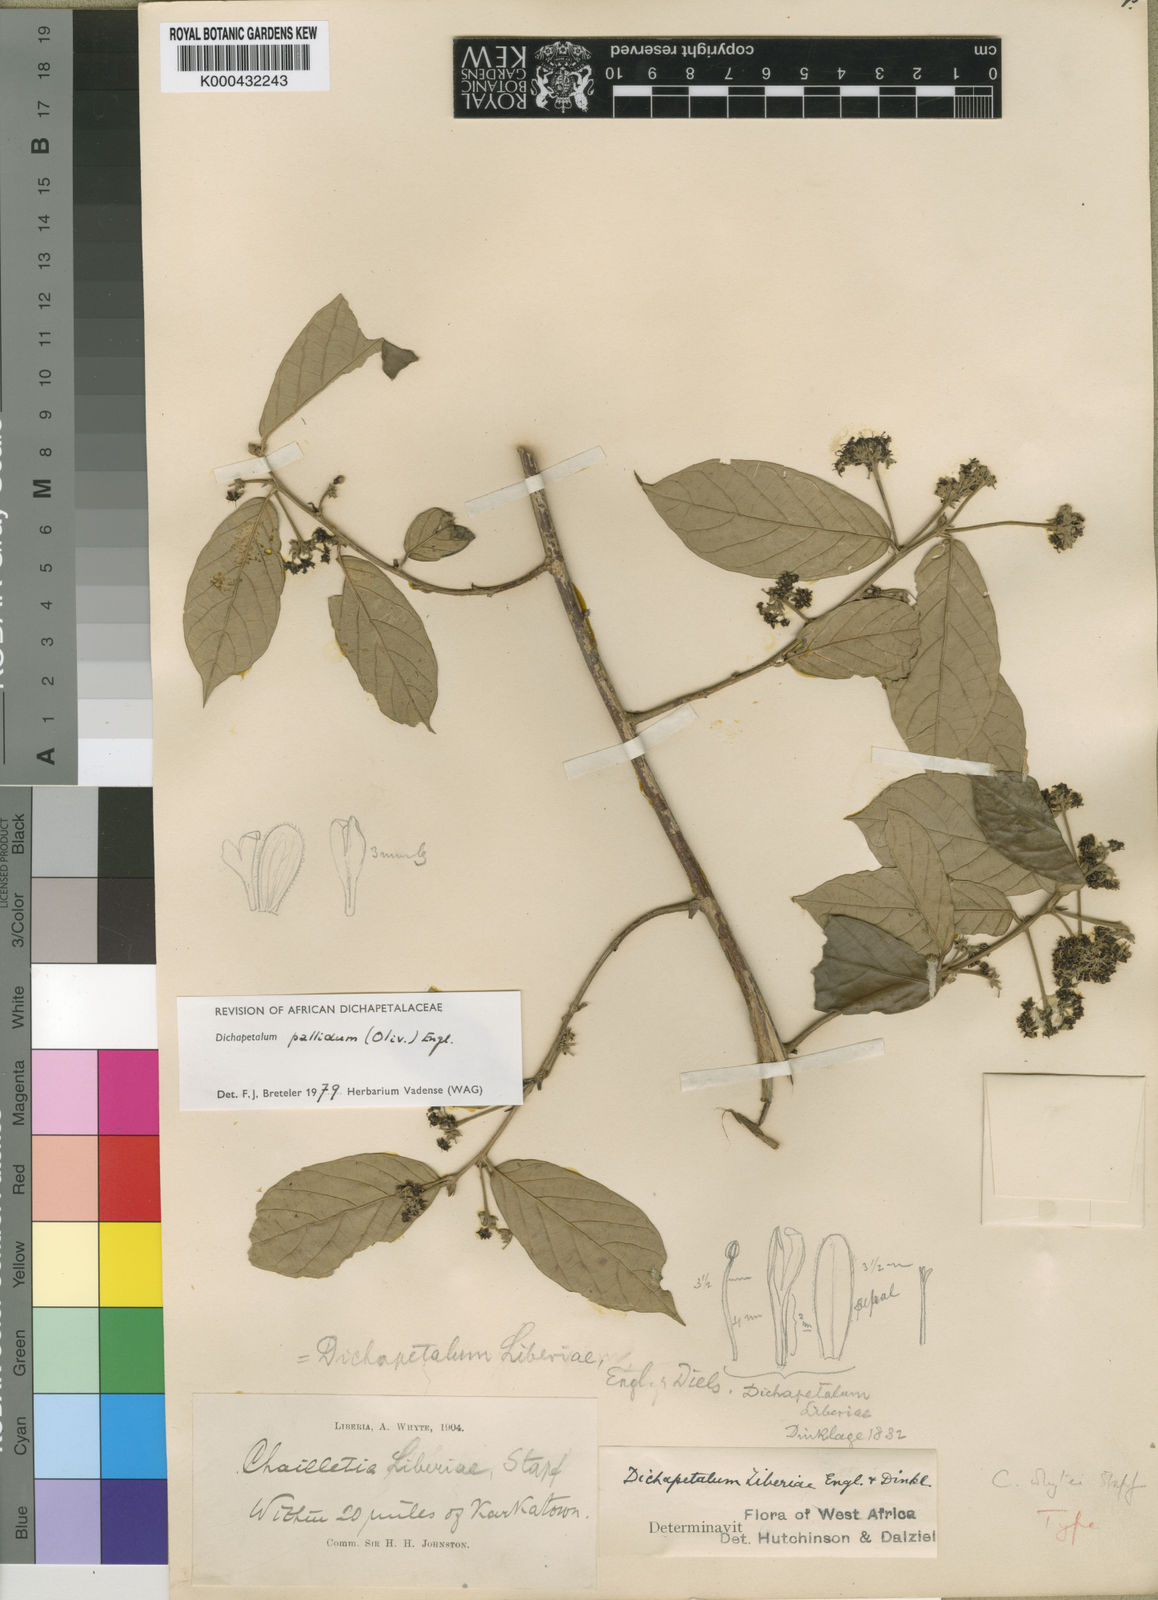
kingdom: Plantae
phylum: Tracheophyta
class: Magnoliopsida
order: Malpighiales
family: Dichapetalaceae
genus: Dichapetalum
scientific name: Dichapetalum pallidum
